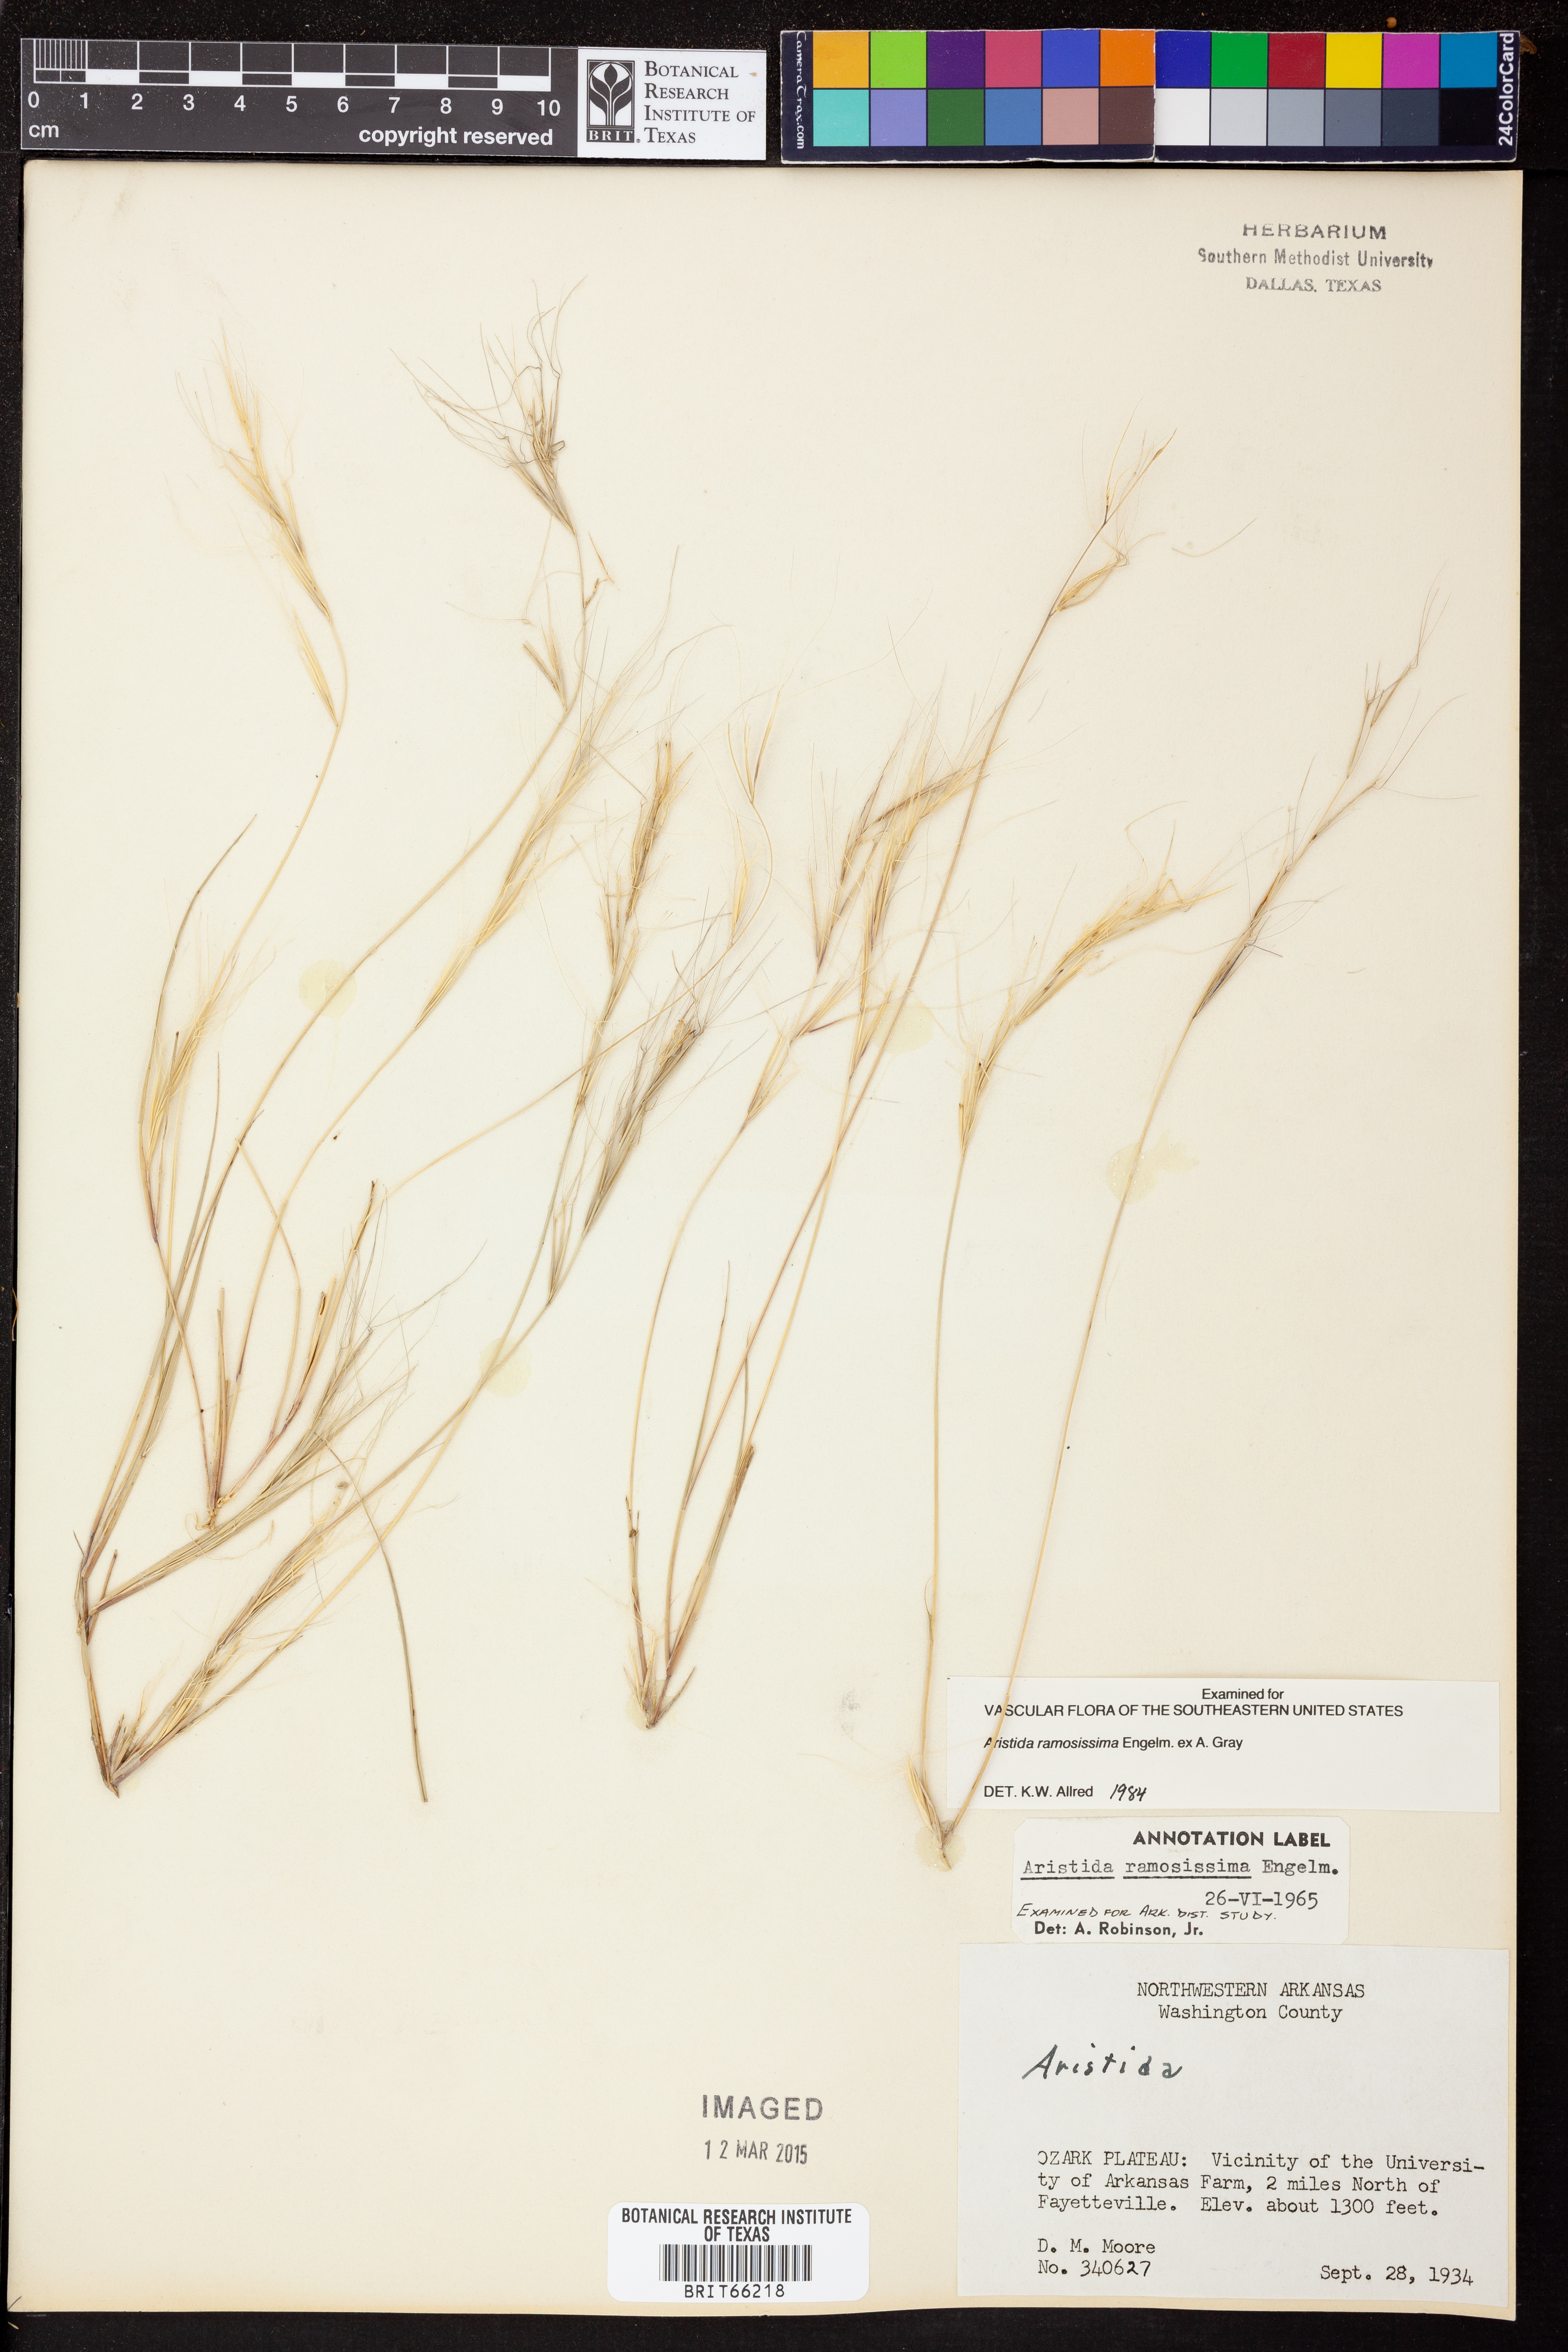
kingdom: Plantae
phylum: Tracheophyta
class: Liliopsida
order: Poales
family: Poaceae
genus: Aristida
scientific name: Aristida ramosissima
